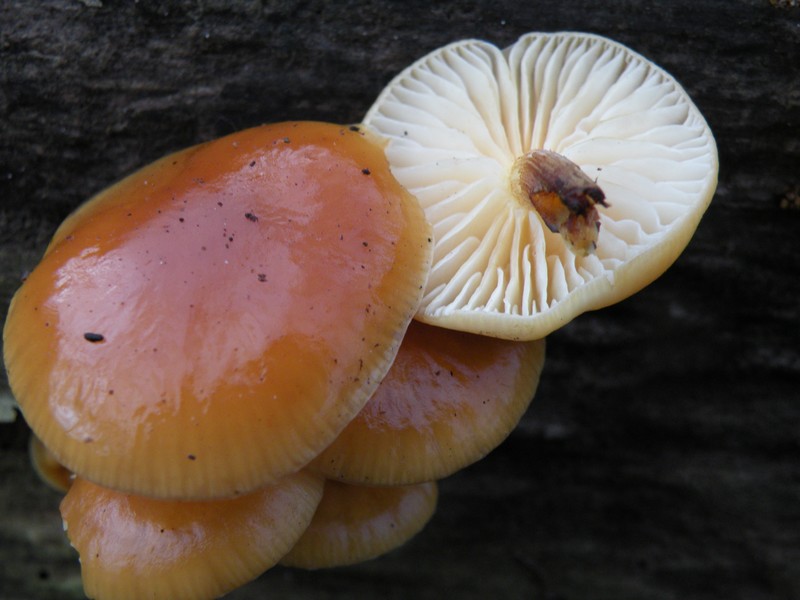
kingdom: Fungi
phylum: Basidiomycota
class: Agaricomycetes
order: Agaricales
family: Physalacriaceae
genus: Flammulina
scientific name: Flammulina velutipes
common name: gul fløjlsfod
